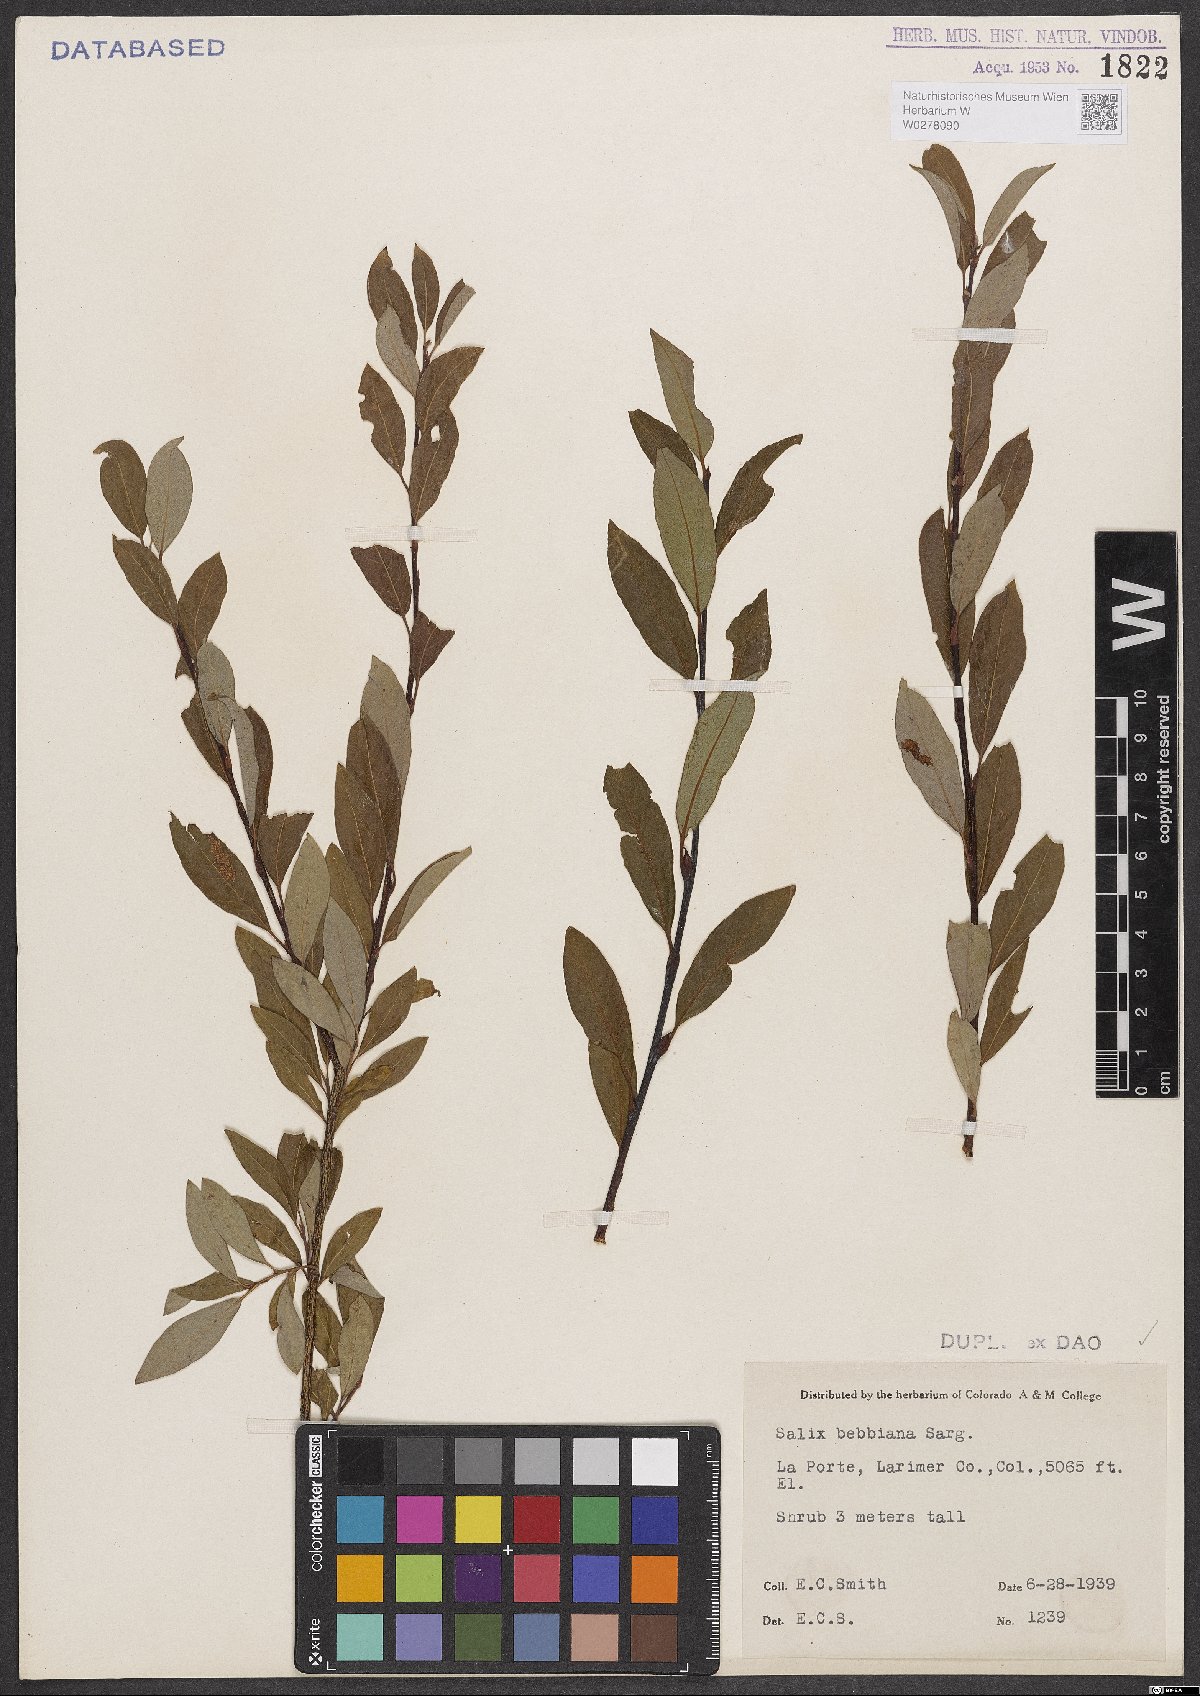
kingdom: Plantae
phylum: Tracheophyta
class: Magnoliopsida
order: Malpighiales
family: Salicaceae
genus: Salix
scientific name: Salix bebbiana
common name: Bebb's willow
